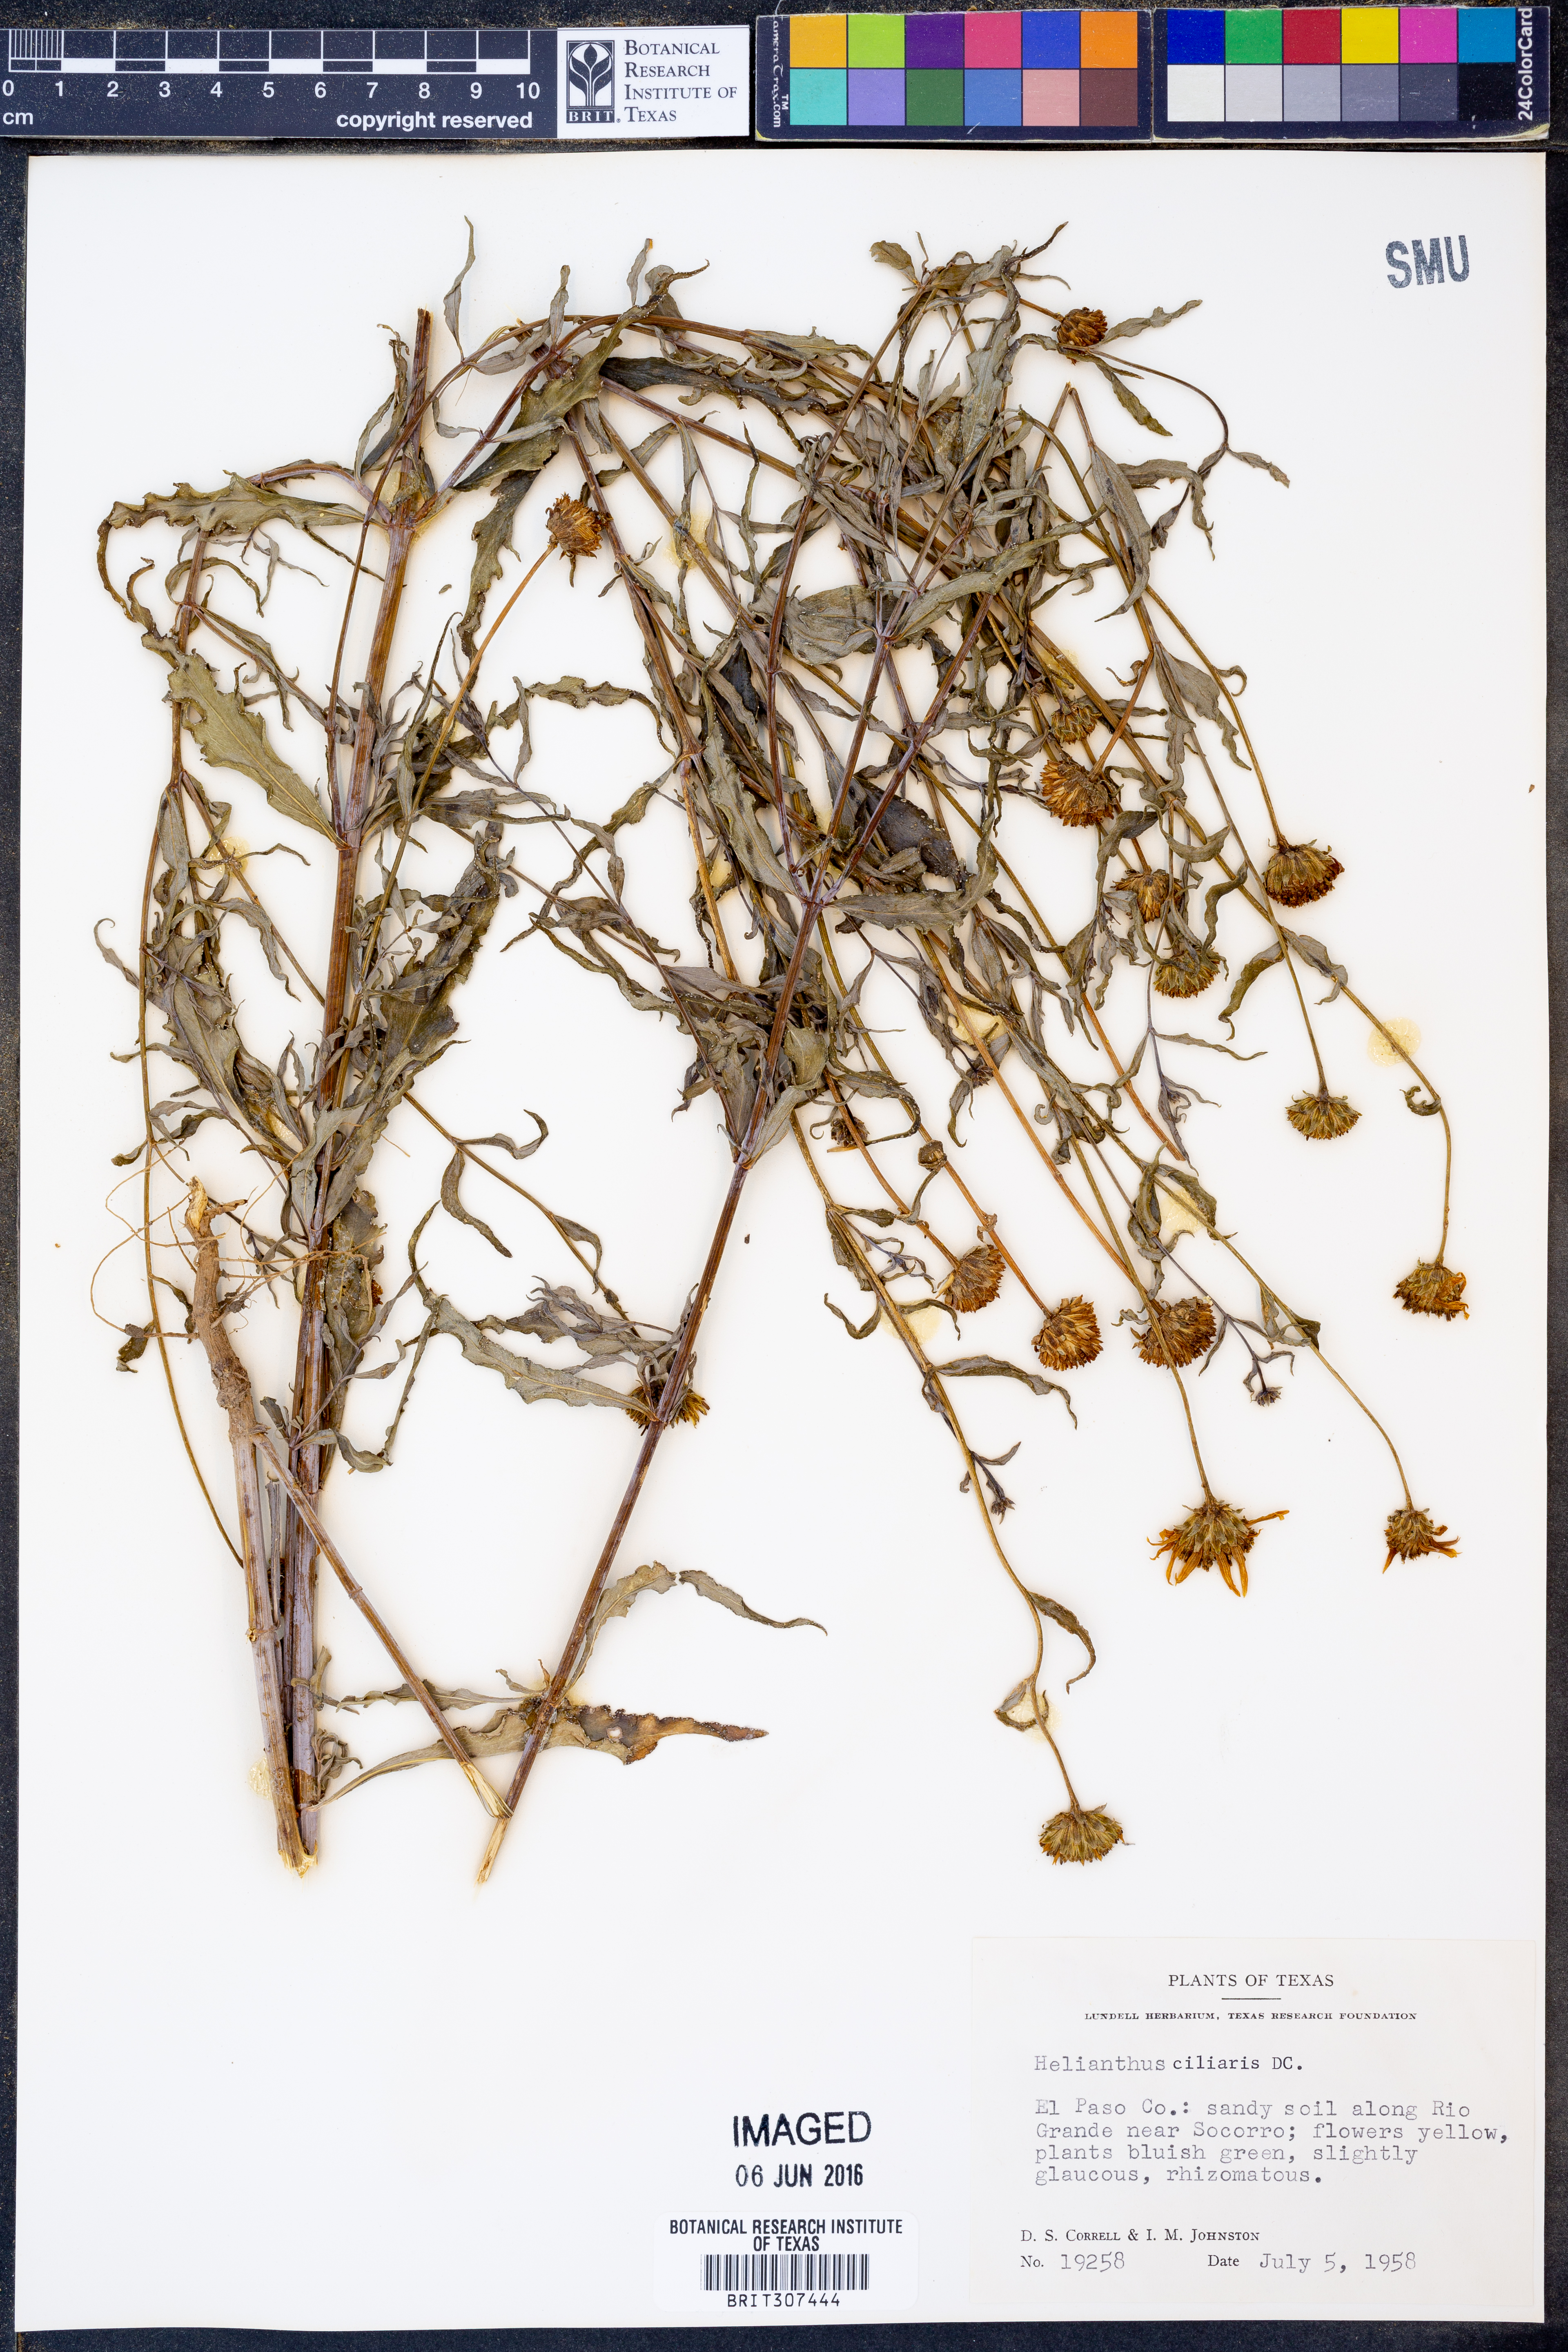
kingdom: Plantae
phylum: Tracheophyta
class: Magnoliopsida
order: Asterales
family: Asteraceae
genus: Helianthus
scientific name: Helianthus ciliaris
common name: Texas blueweed
